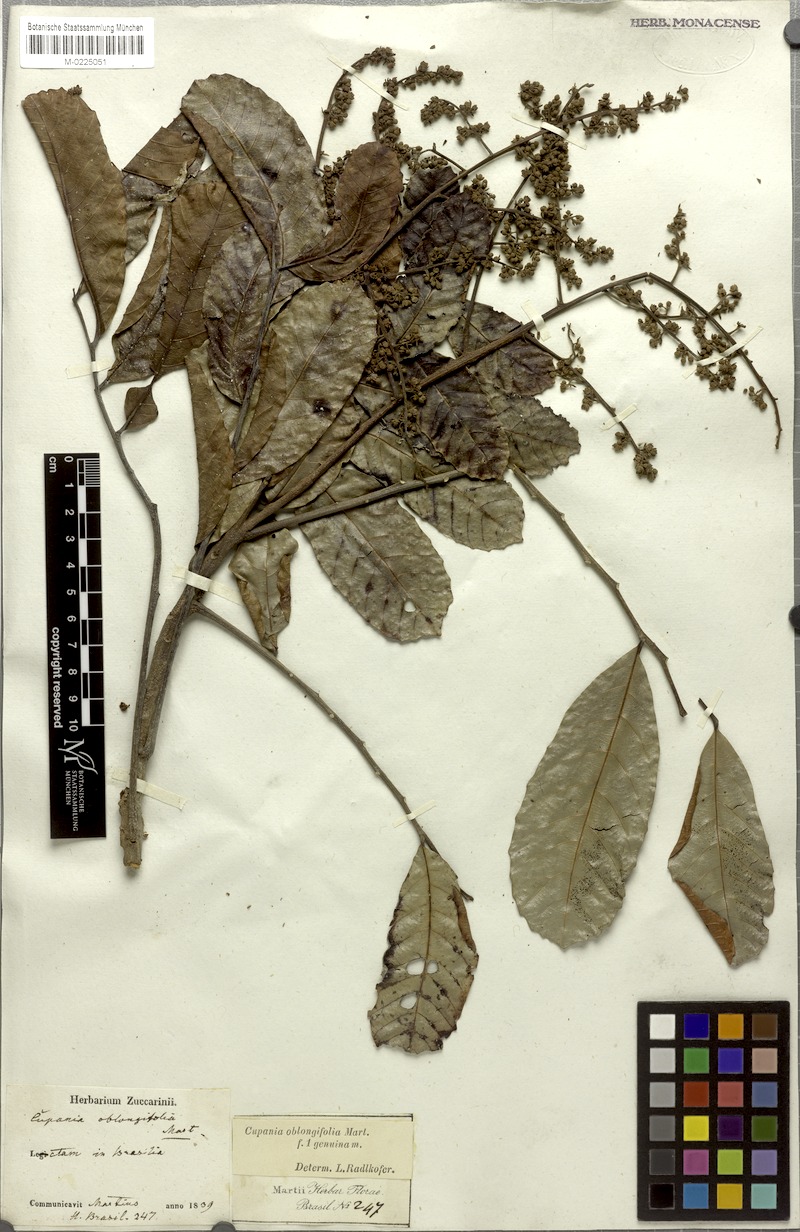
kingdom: Plantae
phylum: Tracheophyta
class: Magnoliopsida
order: Sapindales
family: Sapindaceae
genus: Cupania
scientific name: Cupania oblongifolia
